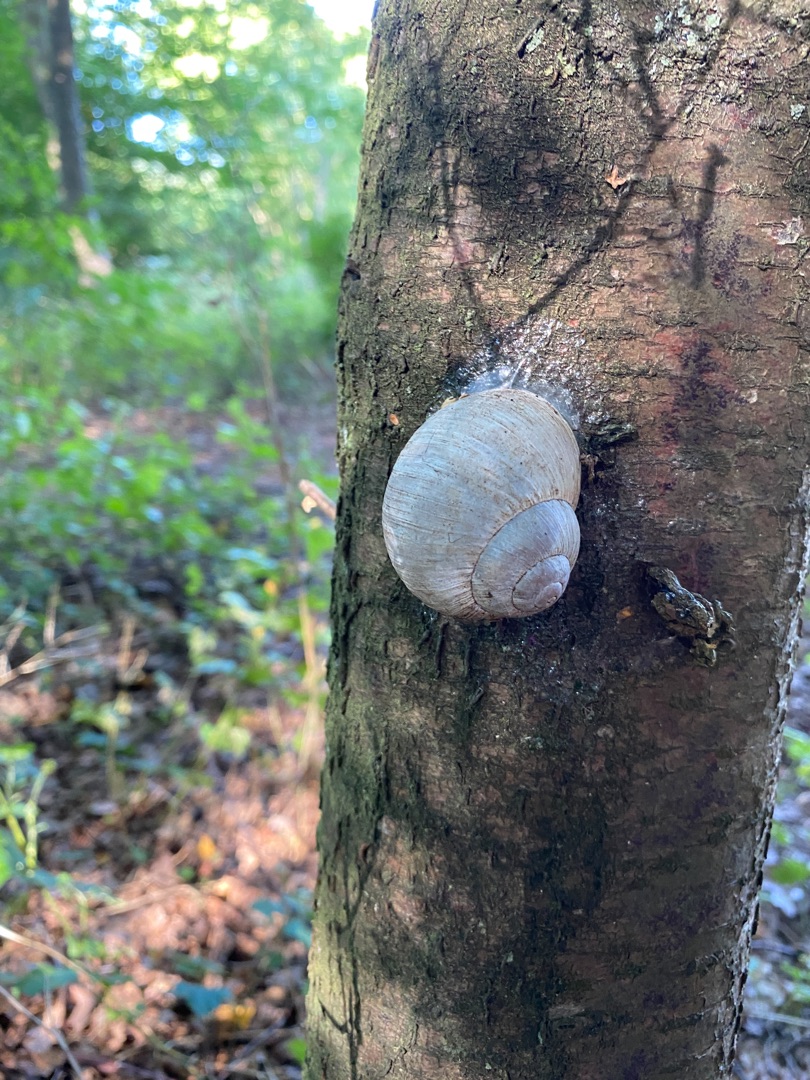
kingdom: Animalia
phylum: Mollusca
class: Gastropoda
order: Stylommatophora
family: Helicidae
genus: Helix
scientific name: Helix pomatia
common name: Vinbjergsnegl
